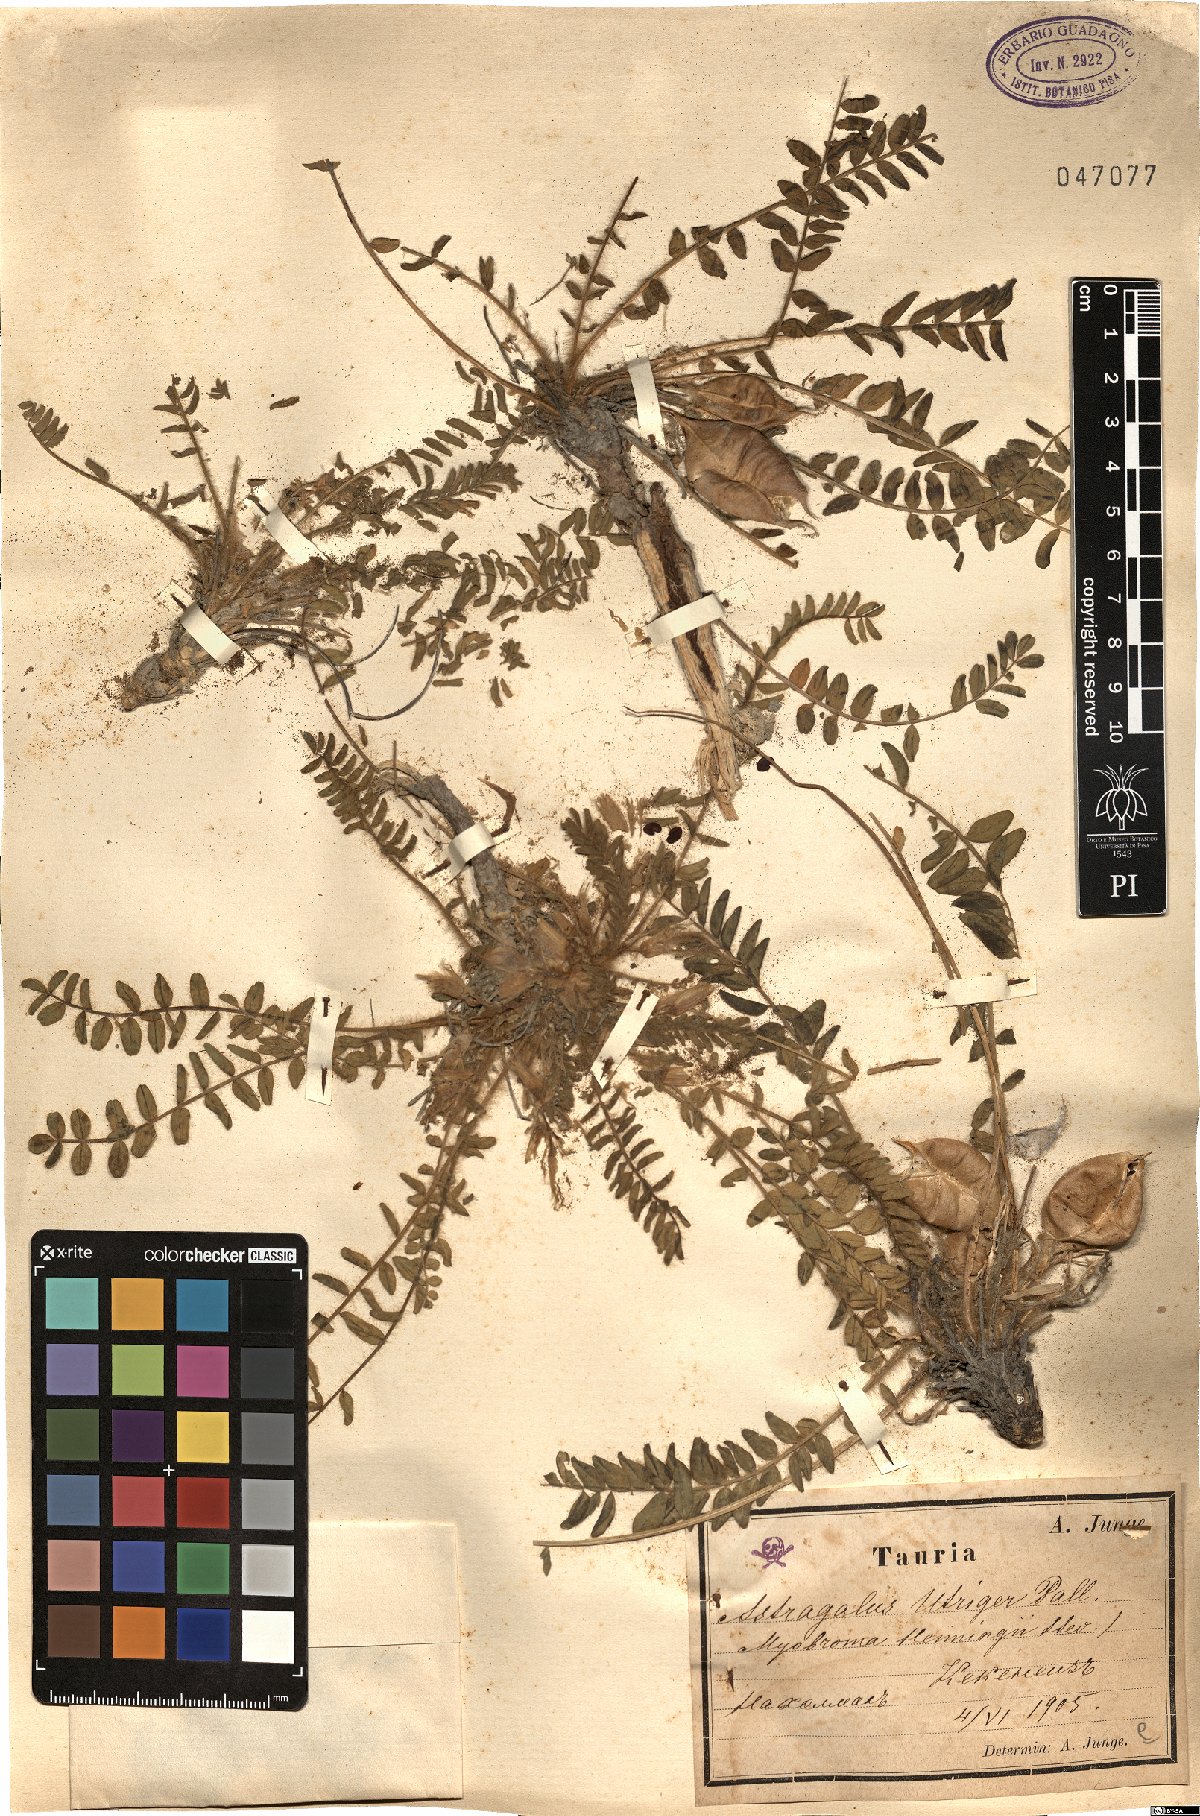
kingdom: Plantae
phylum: Tracheophyta
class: Magnoliopsida
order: Fabales
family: Fabaceae
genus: Astragalus
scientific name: Astragalus utriger
